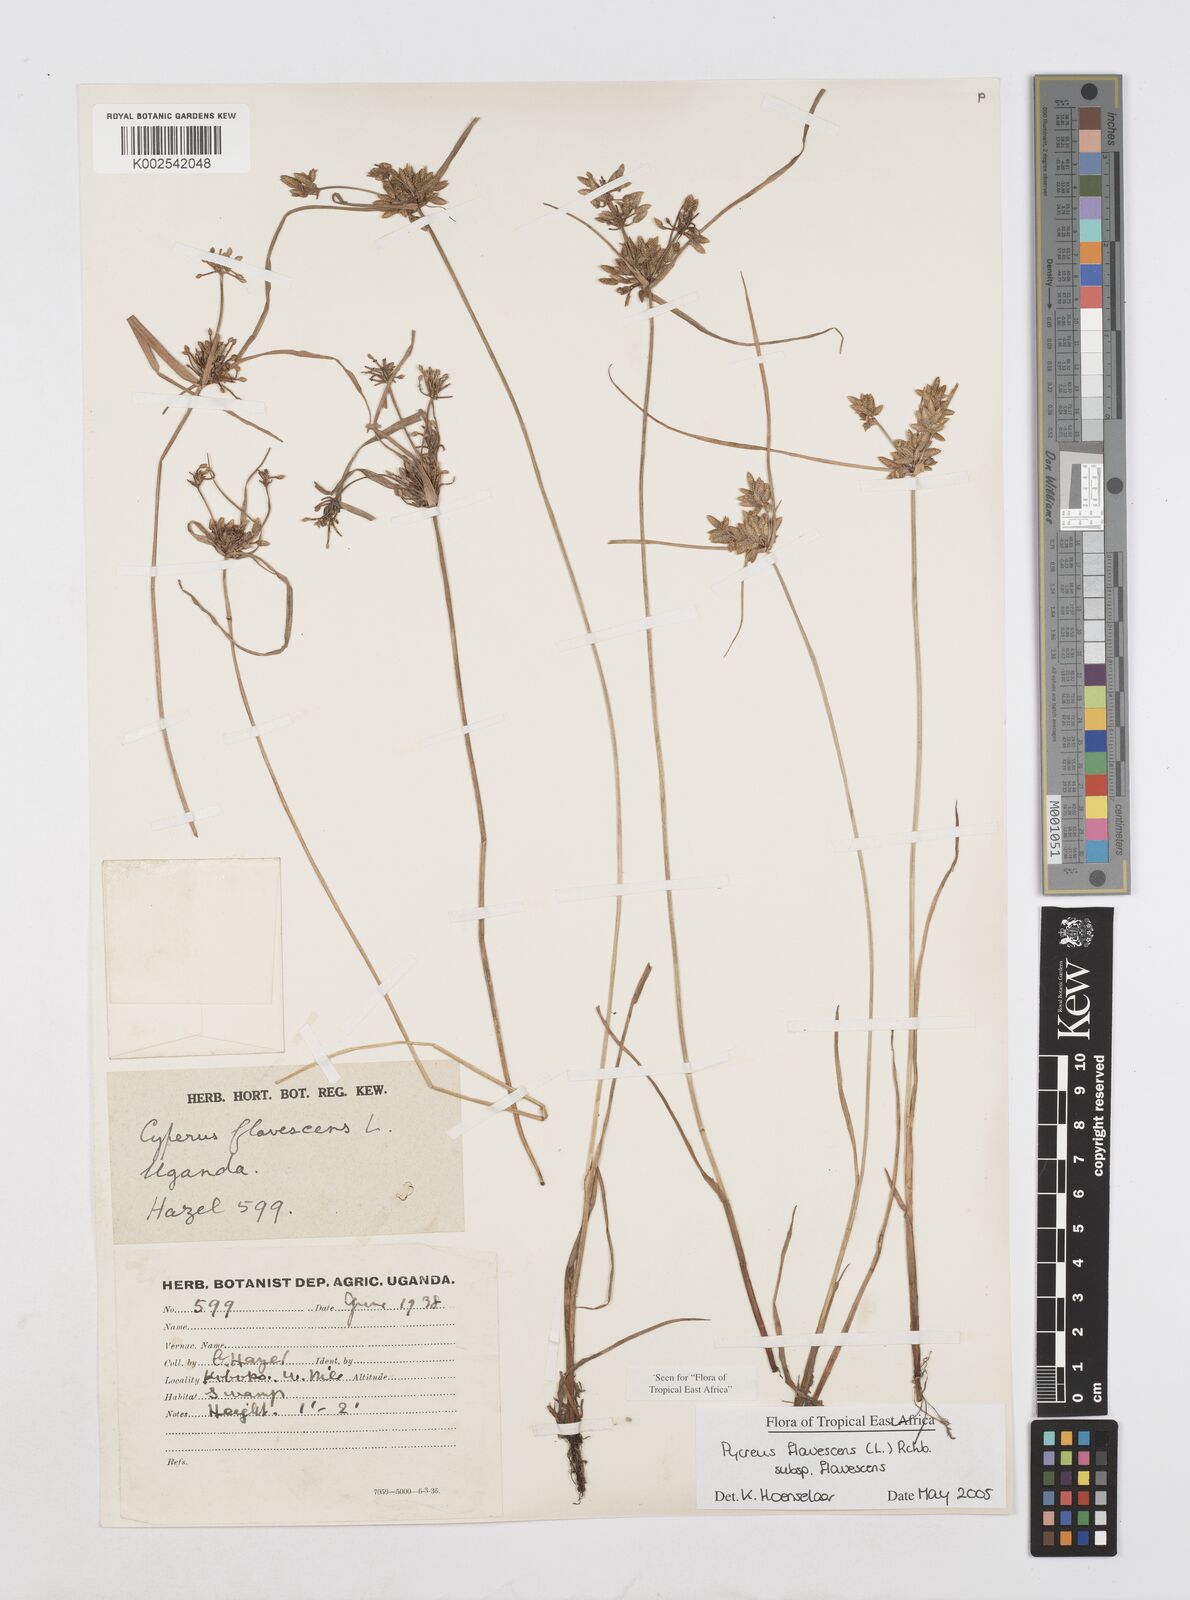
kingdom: Plantae
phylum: Tracheophyta
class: Liliopsida
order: Poales
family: Cyperaceae
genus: Cyperus
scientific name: Cyperus flavescens
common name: Yellow galingale
